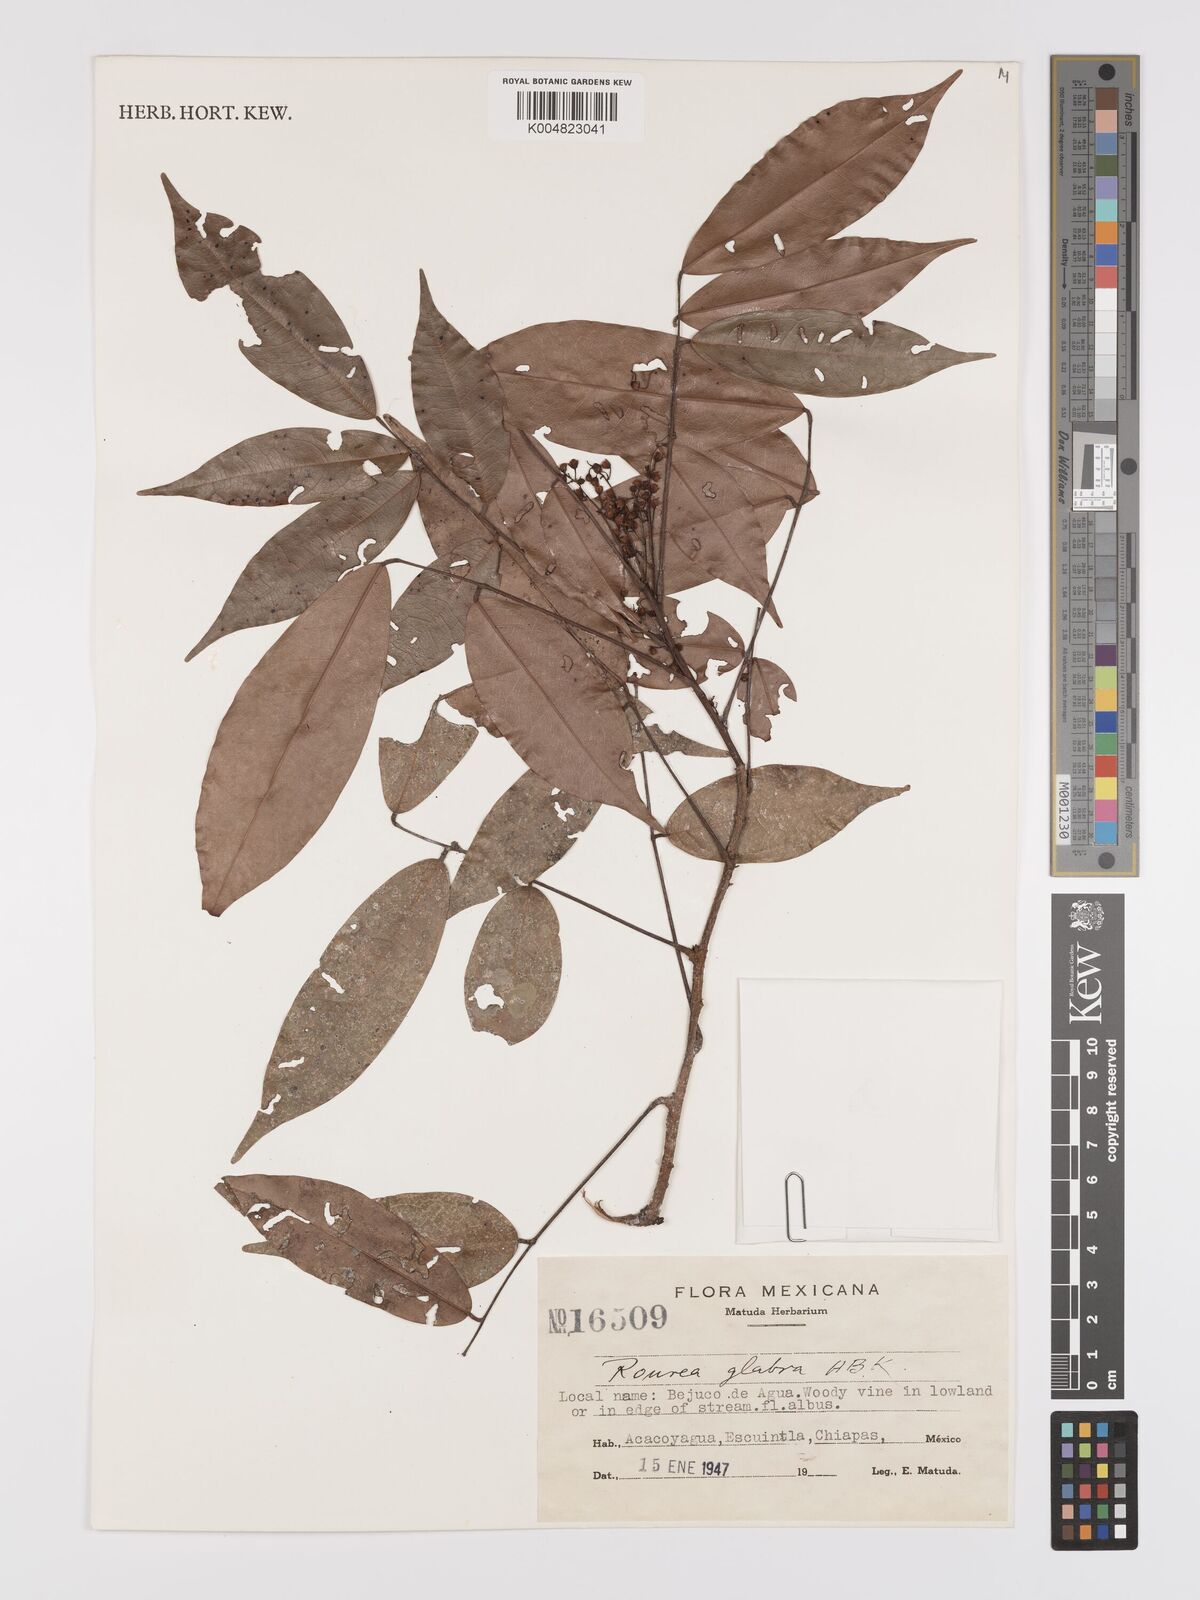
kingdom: Plantae
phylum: Tracheophyta
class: Magnoliopsida
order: Oxalidales
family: Connaraceae
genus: Rourea
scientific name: Rourea glabra
